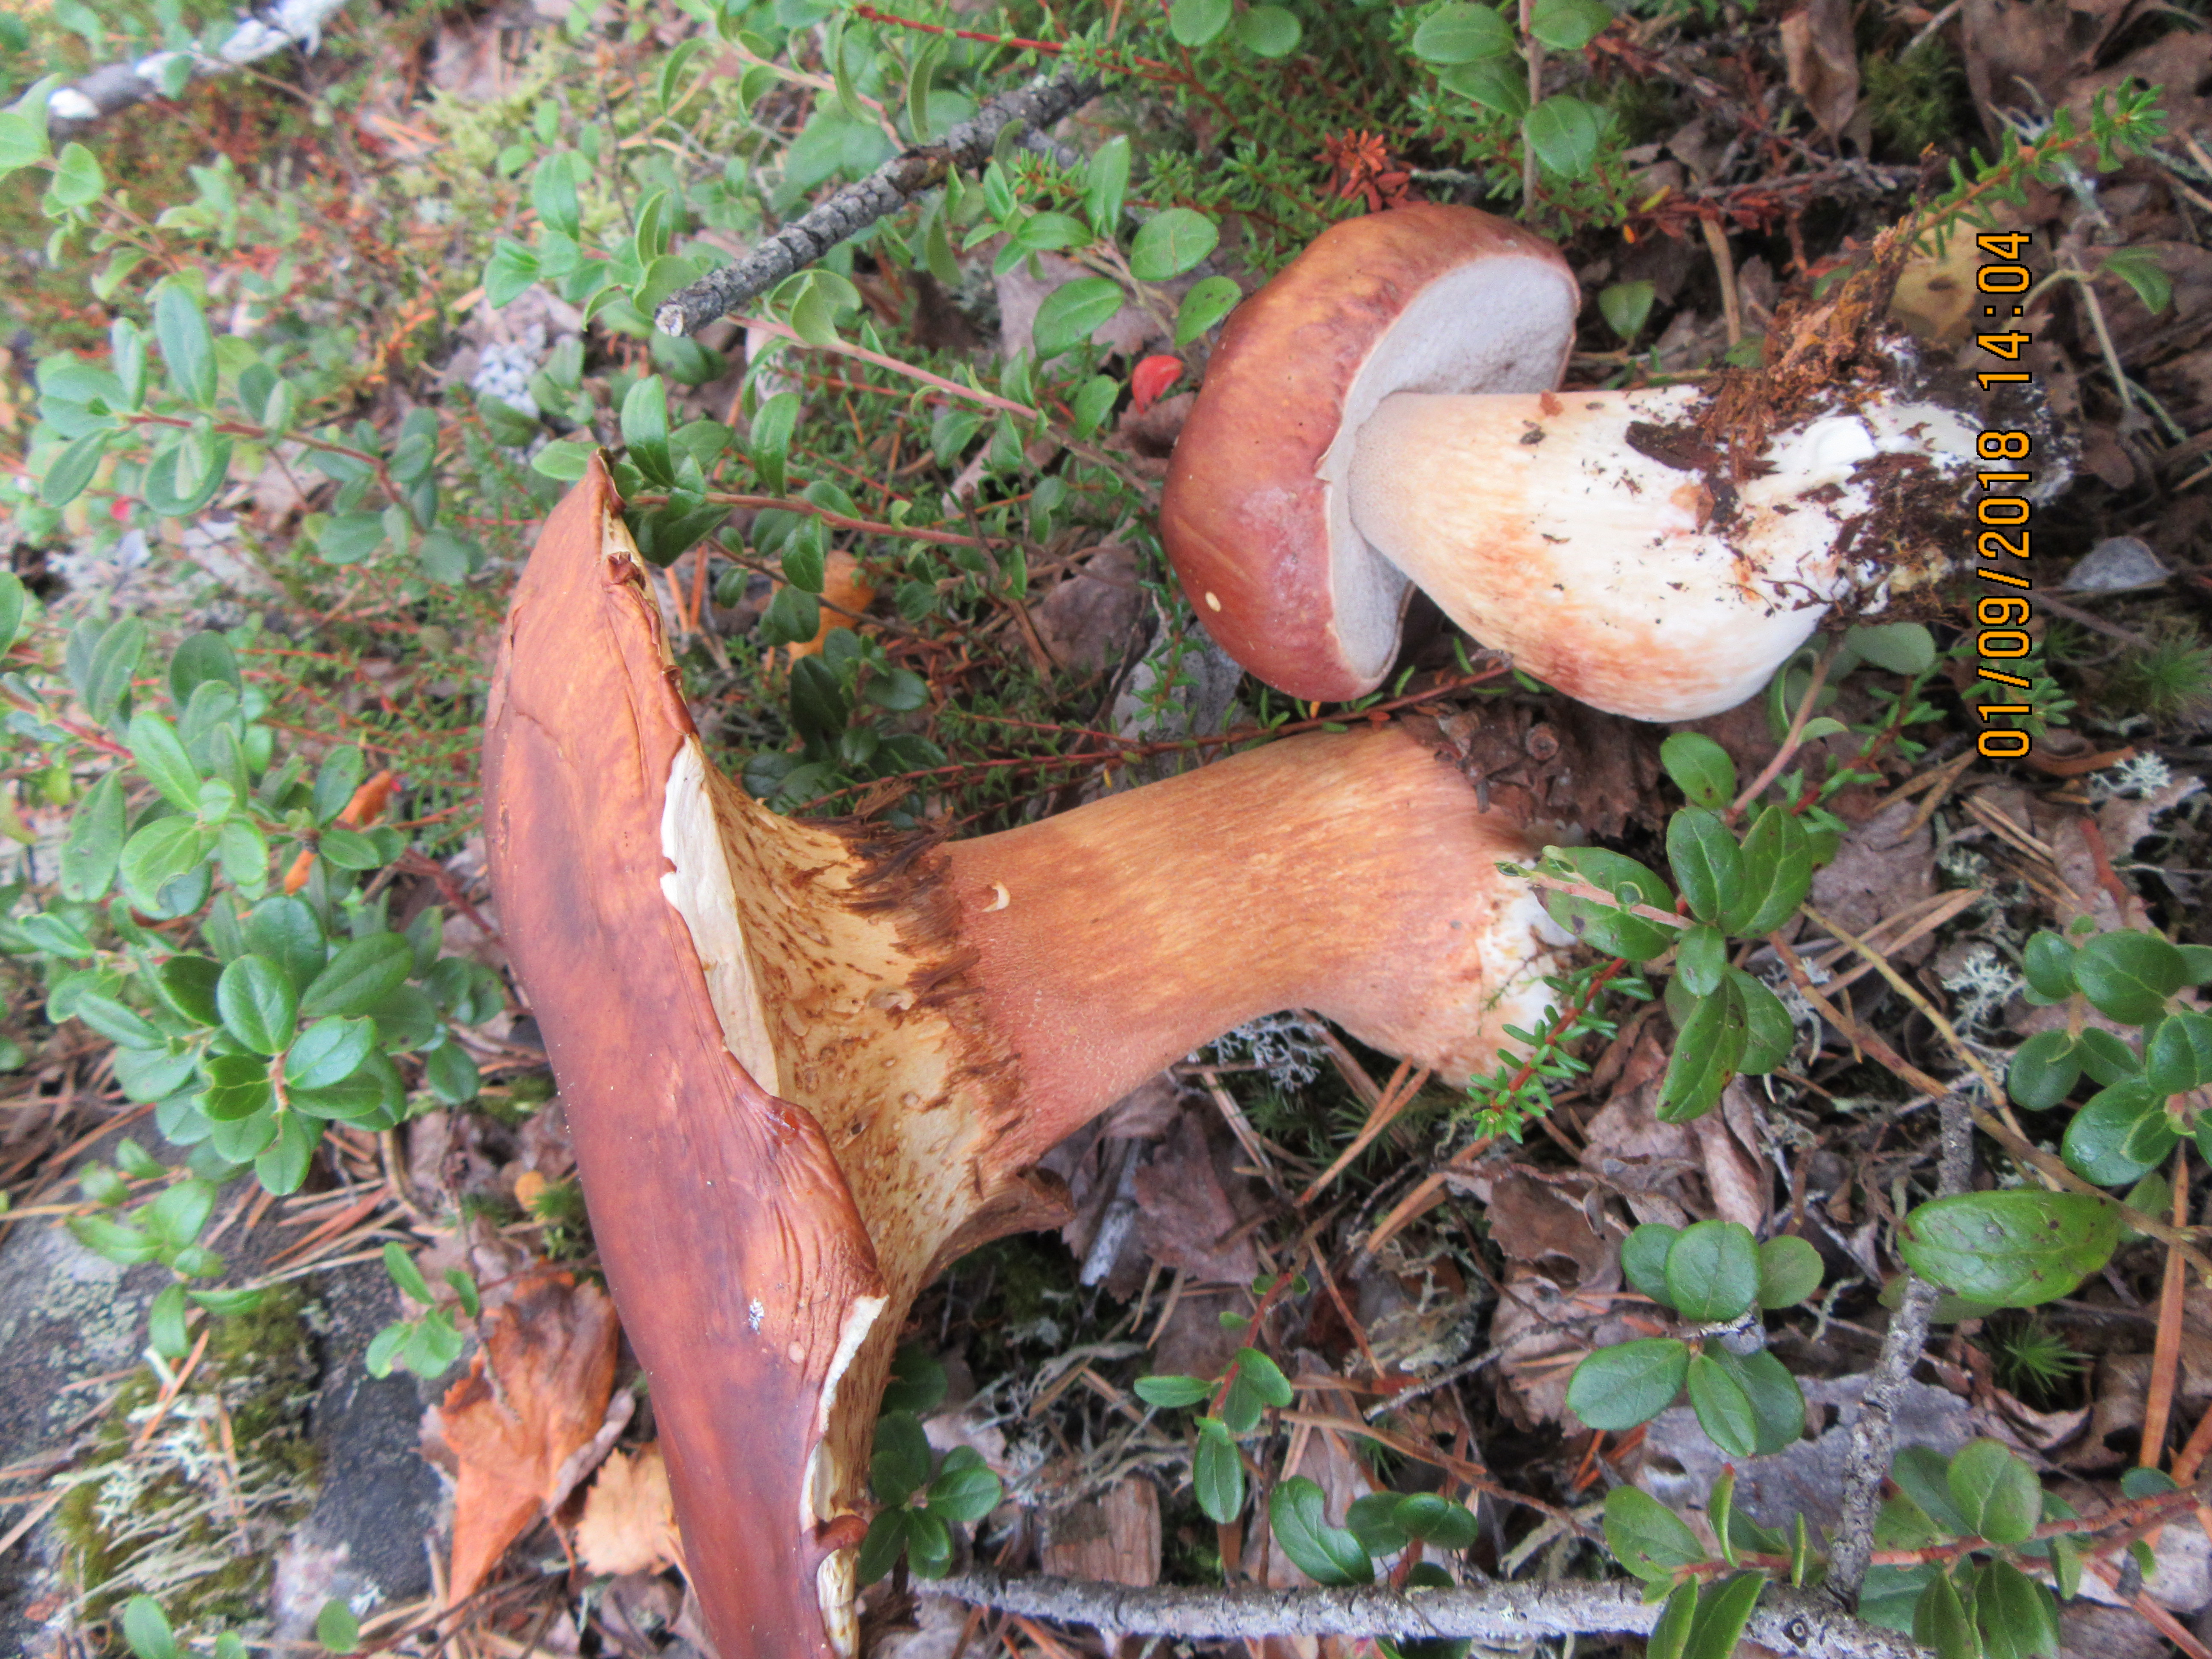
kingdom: Fungi
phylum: Basidiomycota
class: Agaricomycetes
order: Boletales
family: Boletaceae
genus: Boletus
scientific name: Boletus pinophilus
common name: Pine bolete
